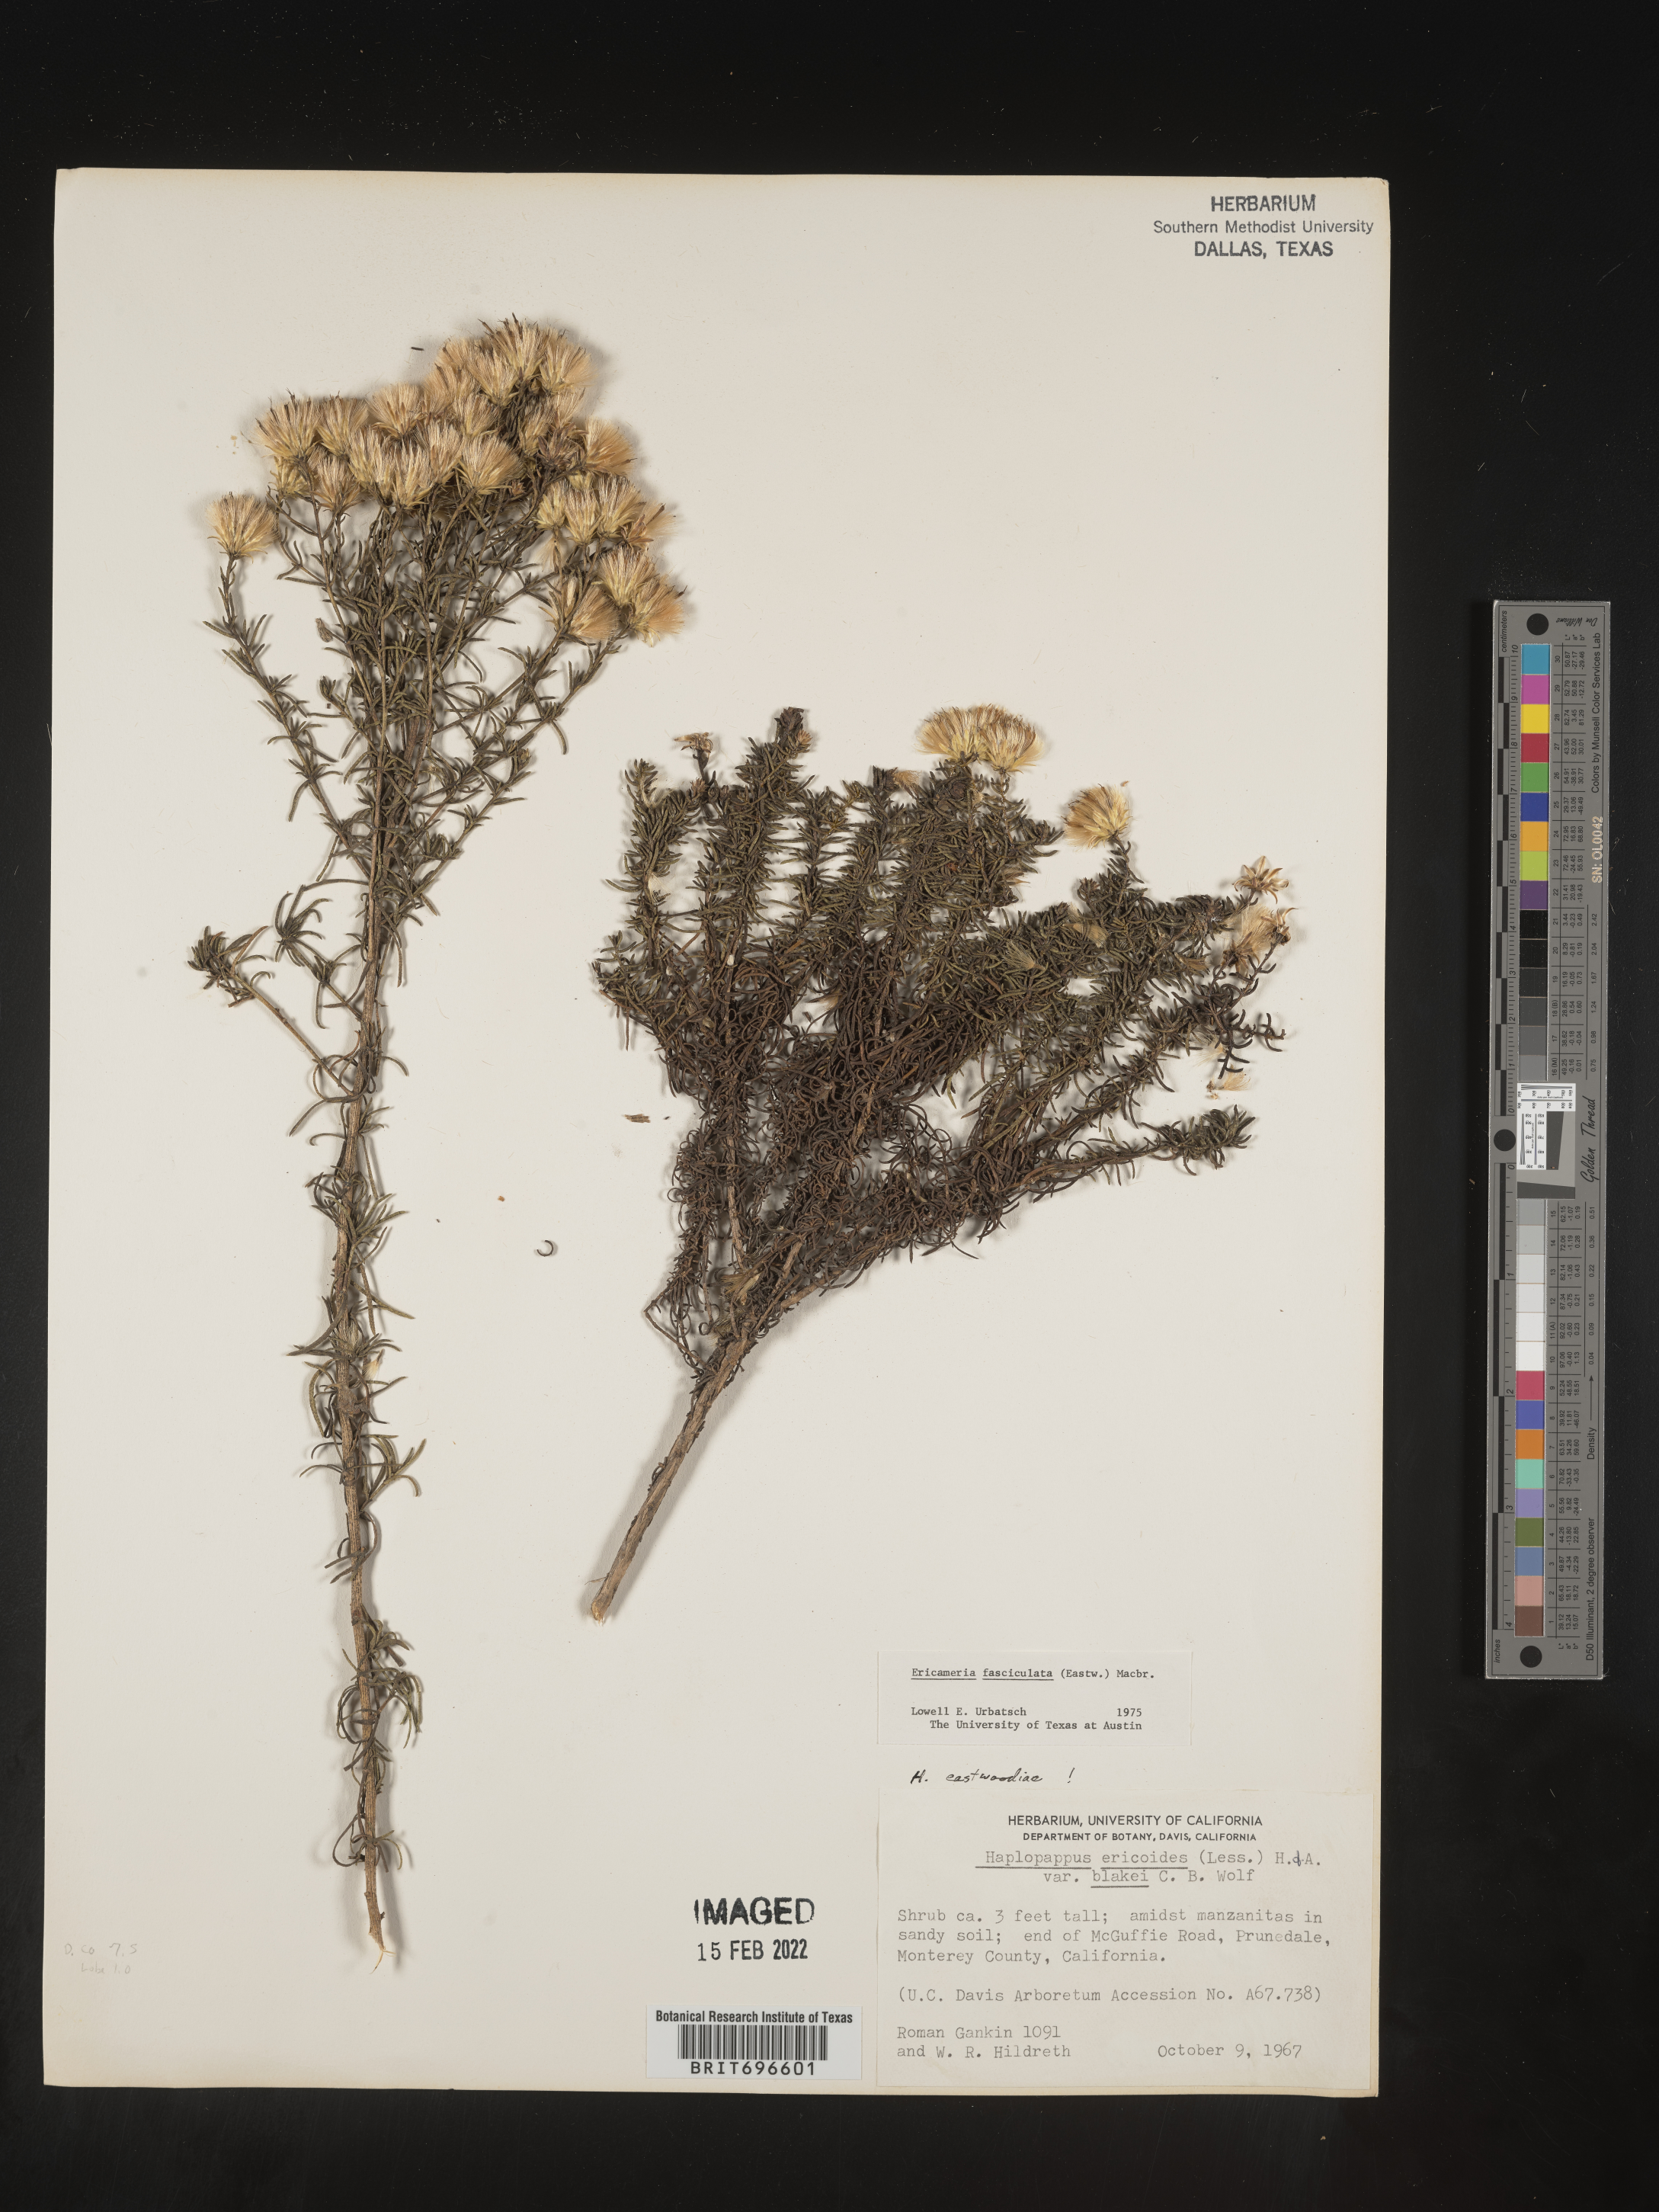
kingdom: Plantae
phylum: Tracheophyta
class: Magnoliopsida
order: Asterales
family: Asteraceae
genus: Ericameria
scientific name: Ericameria fasciculata
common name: Eastwood's goldenbush
